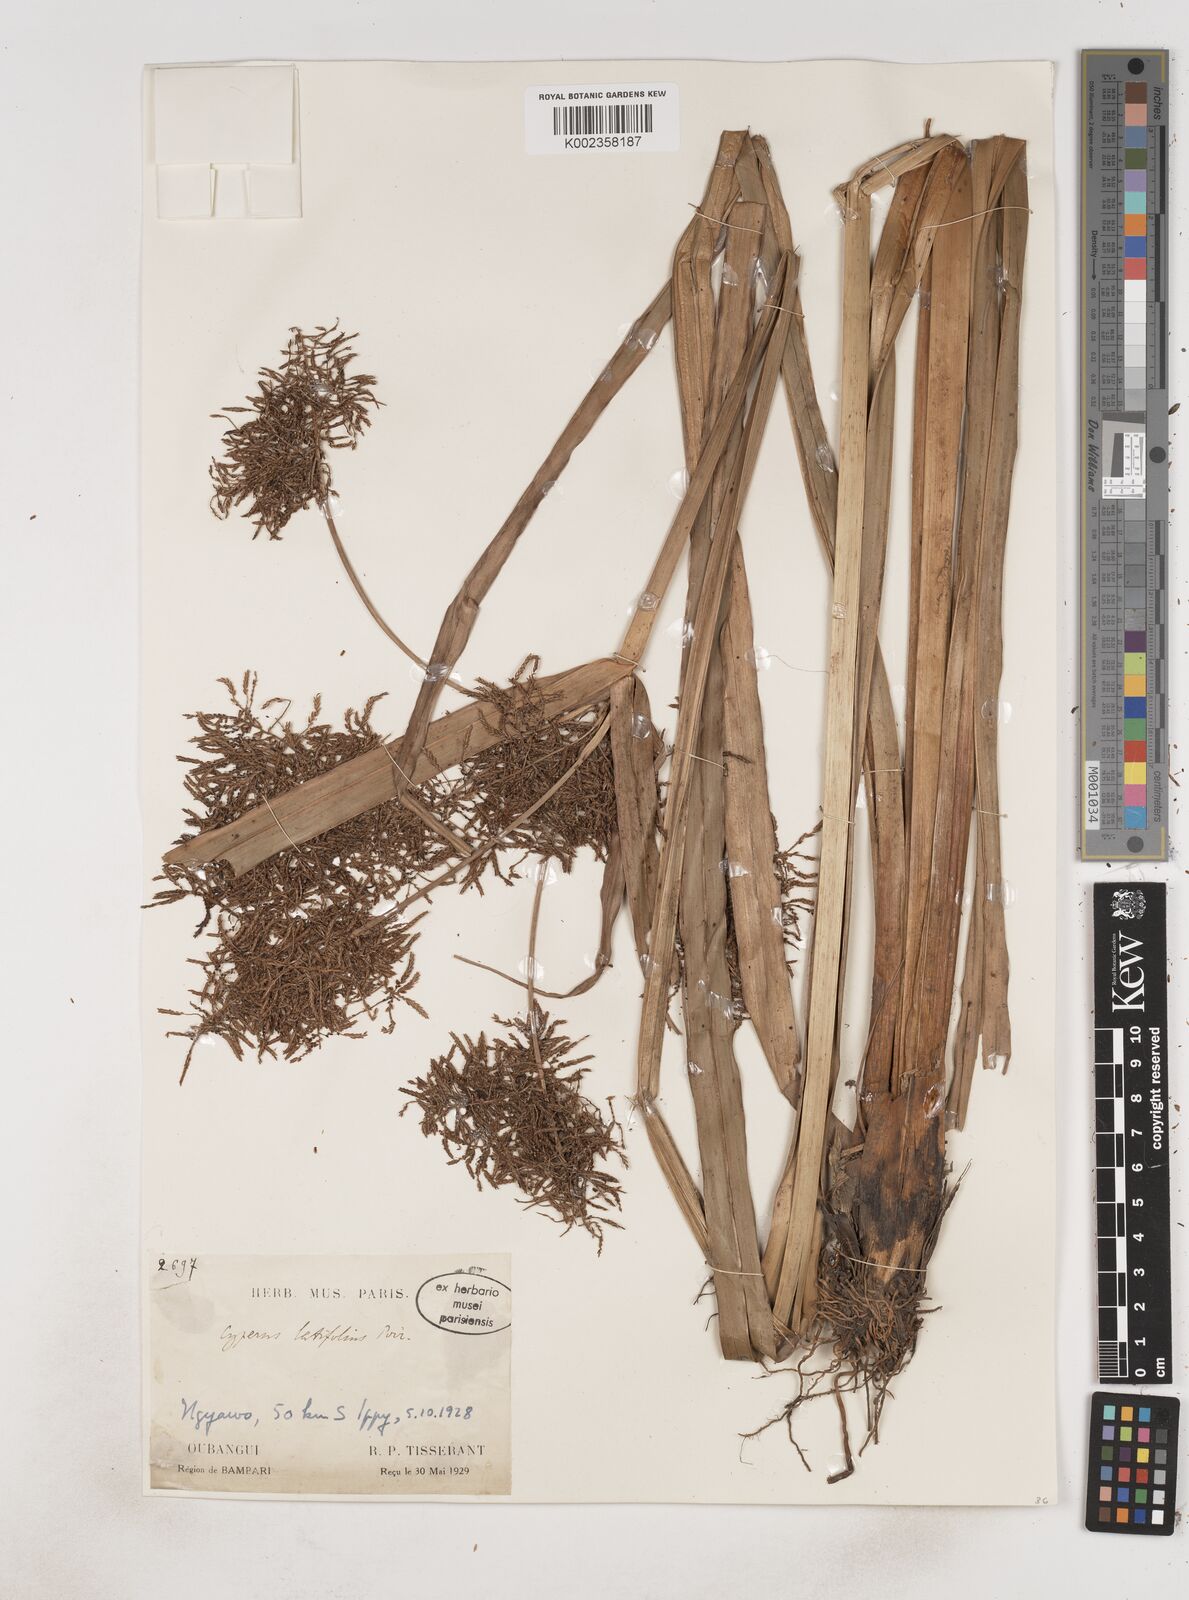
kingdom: Plantae
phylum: Tracheophyta
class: Liliopsida
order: Poales
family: Cyperaceae
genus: Cyperus
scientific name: Cyperus latifolius
